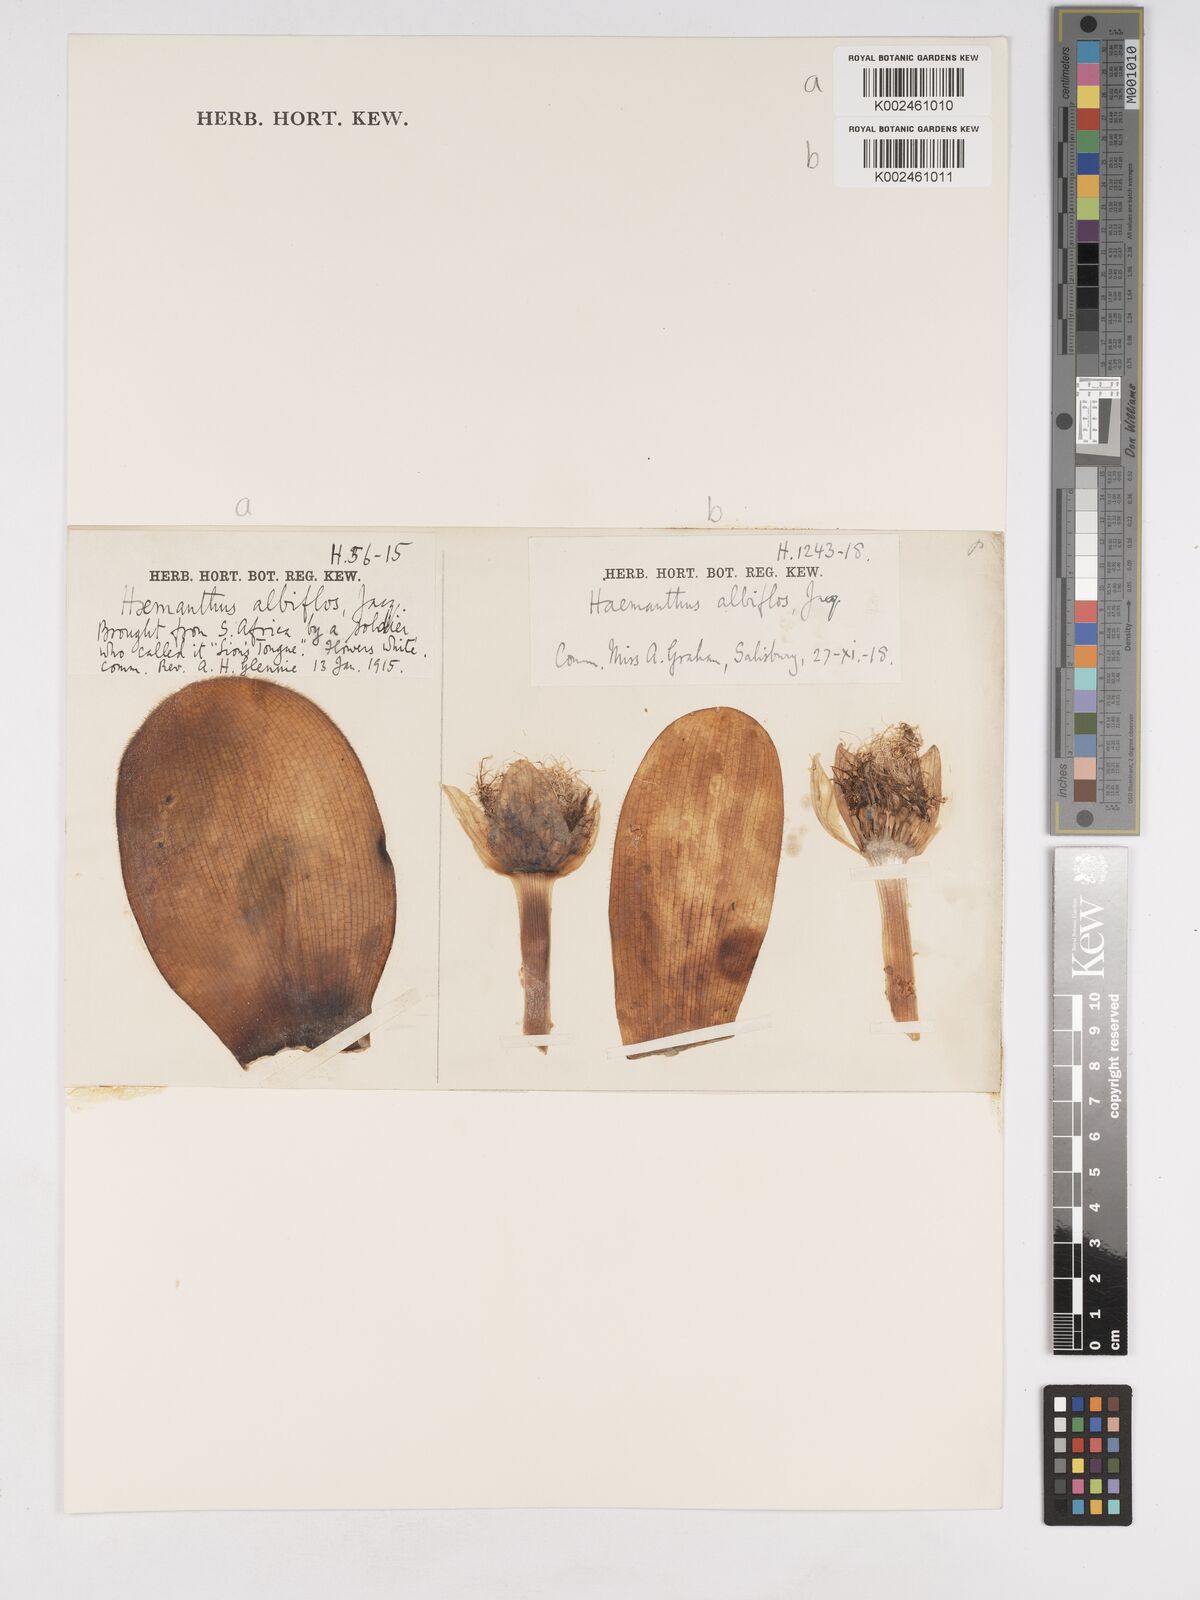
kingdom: Plantae
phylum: Tracheophyta
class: Liliopsida
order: Asparagales
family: Amaryllidaceae
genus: Haemanthus
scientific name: Haemanthus albiflos
